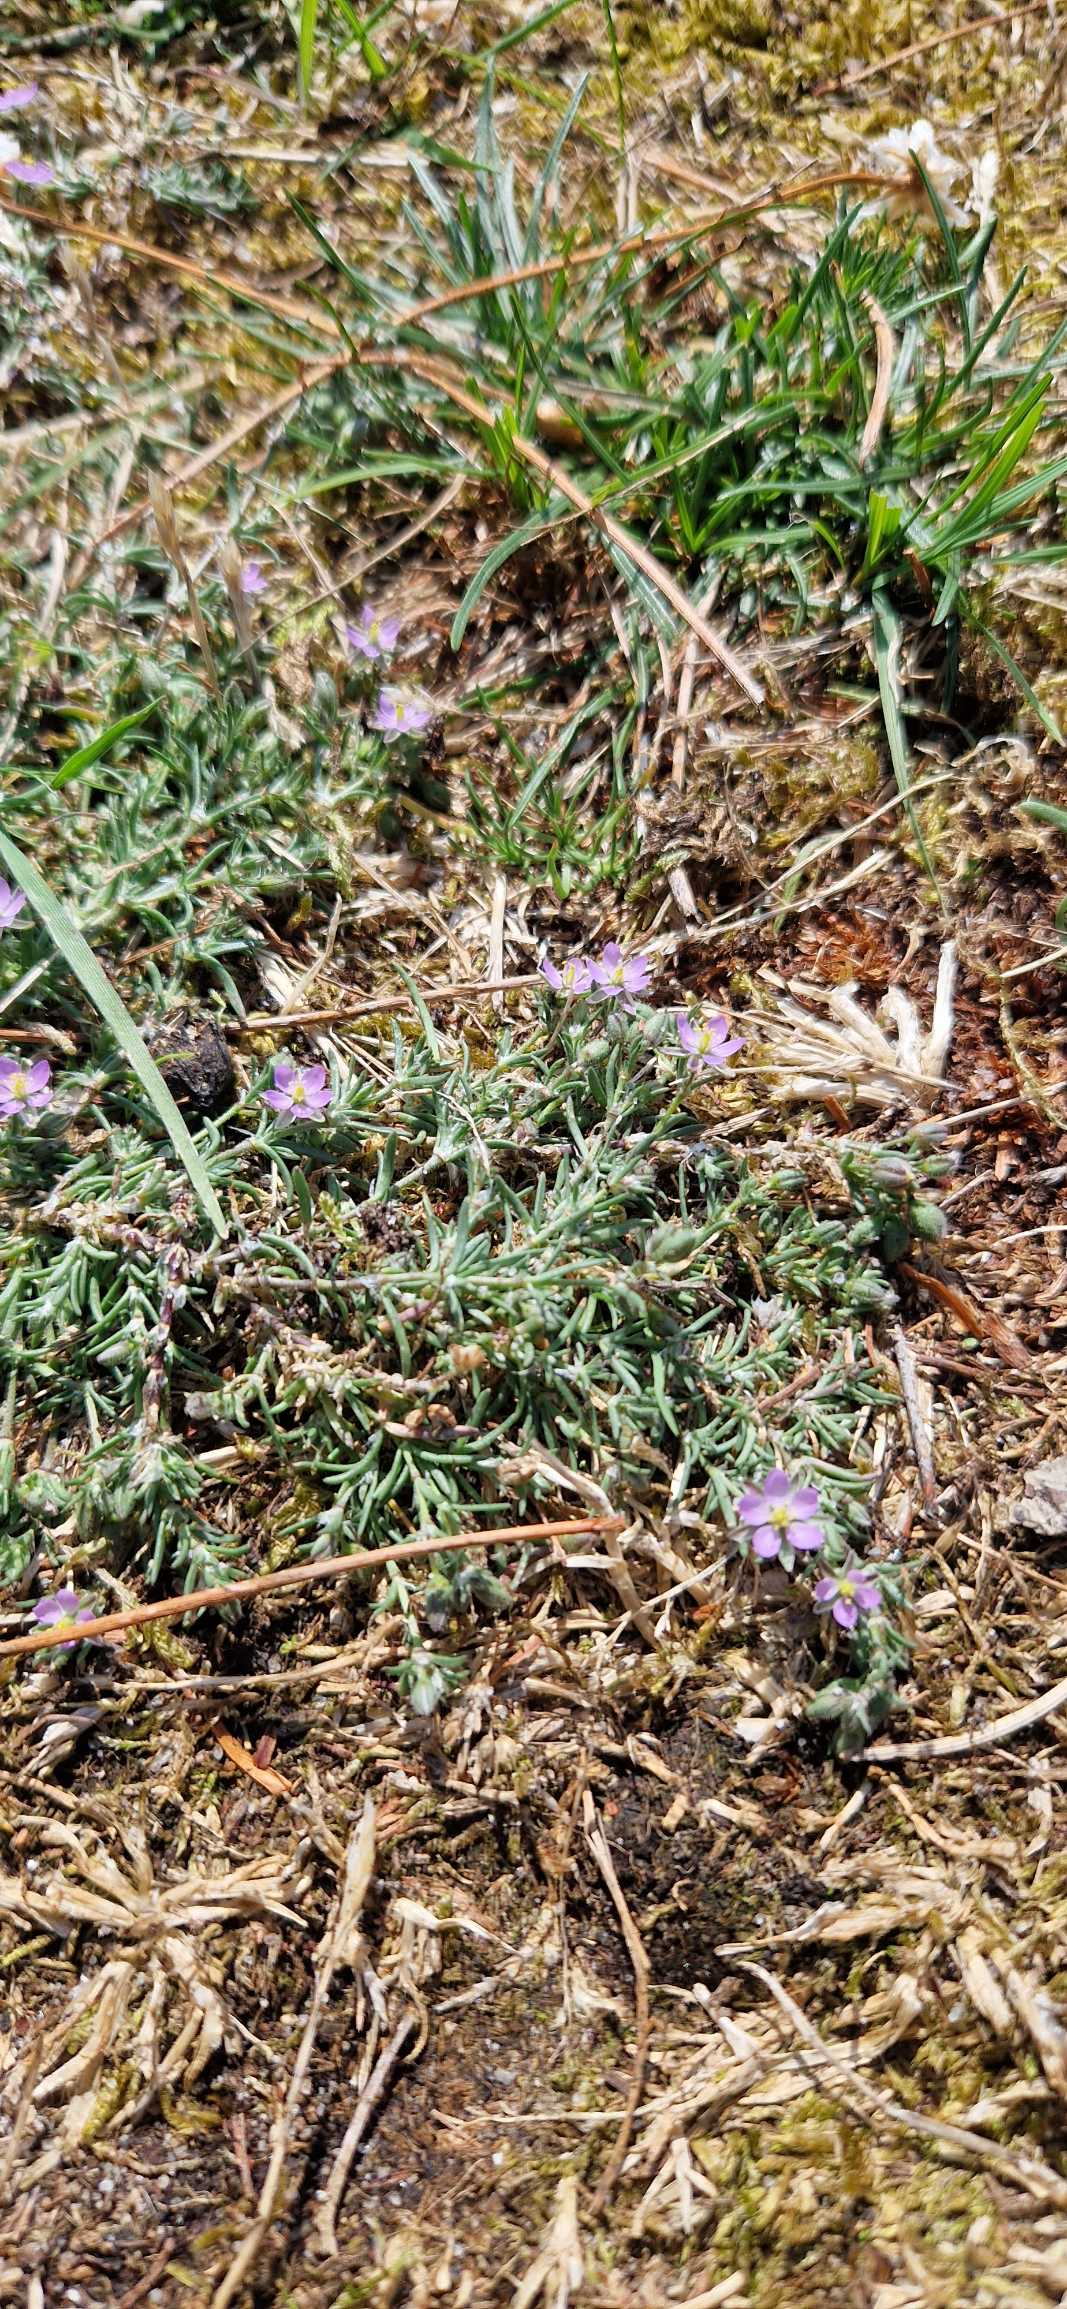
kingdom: Plantae
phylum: Tracheophyta
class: Magnoliopsida
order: Caryophyllales
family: Caryophyllaceae
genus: Spergularia
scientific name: Spergularia rubra
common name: Mark-hindeknæ
